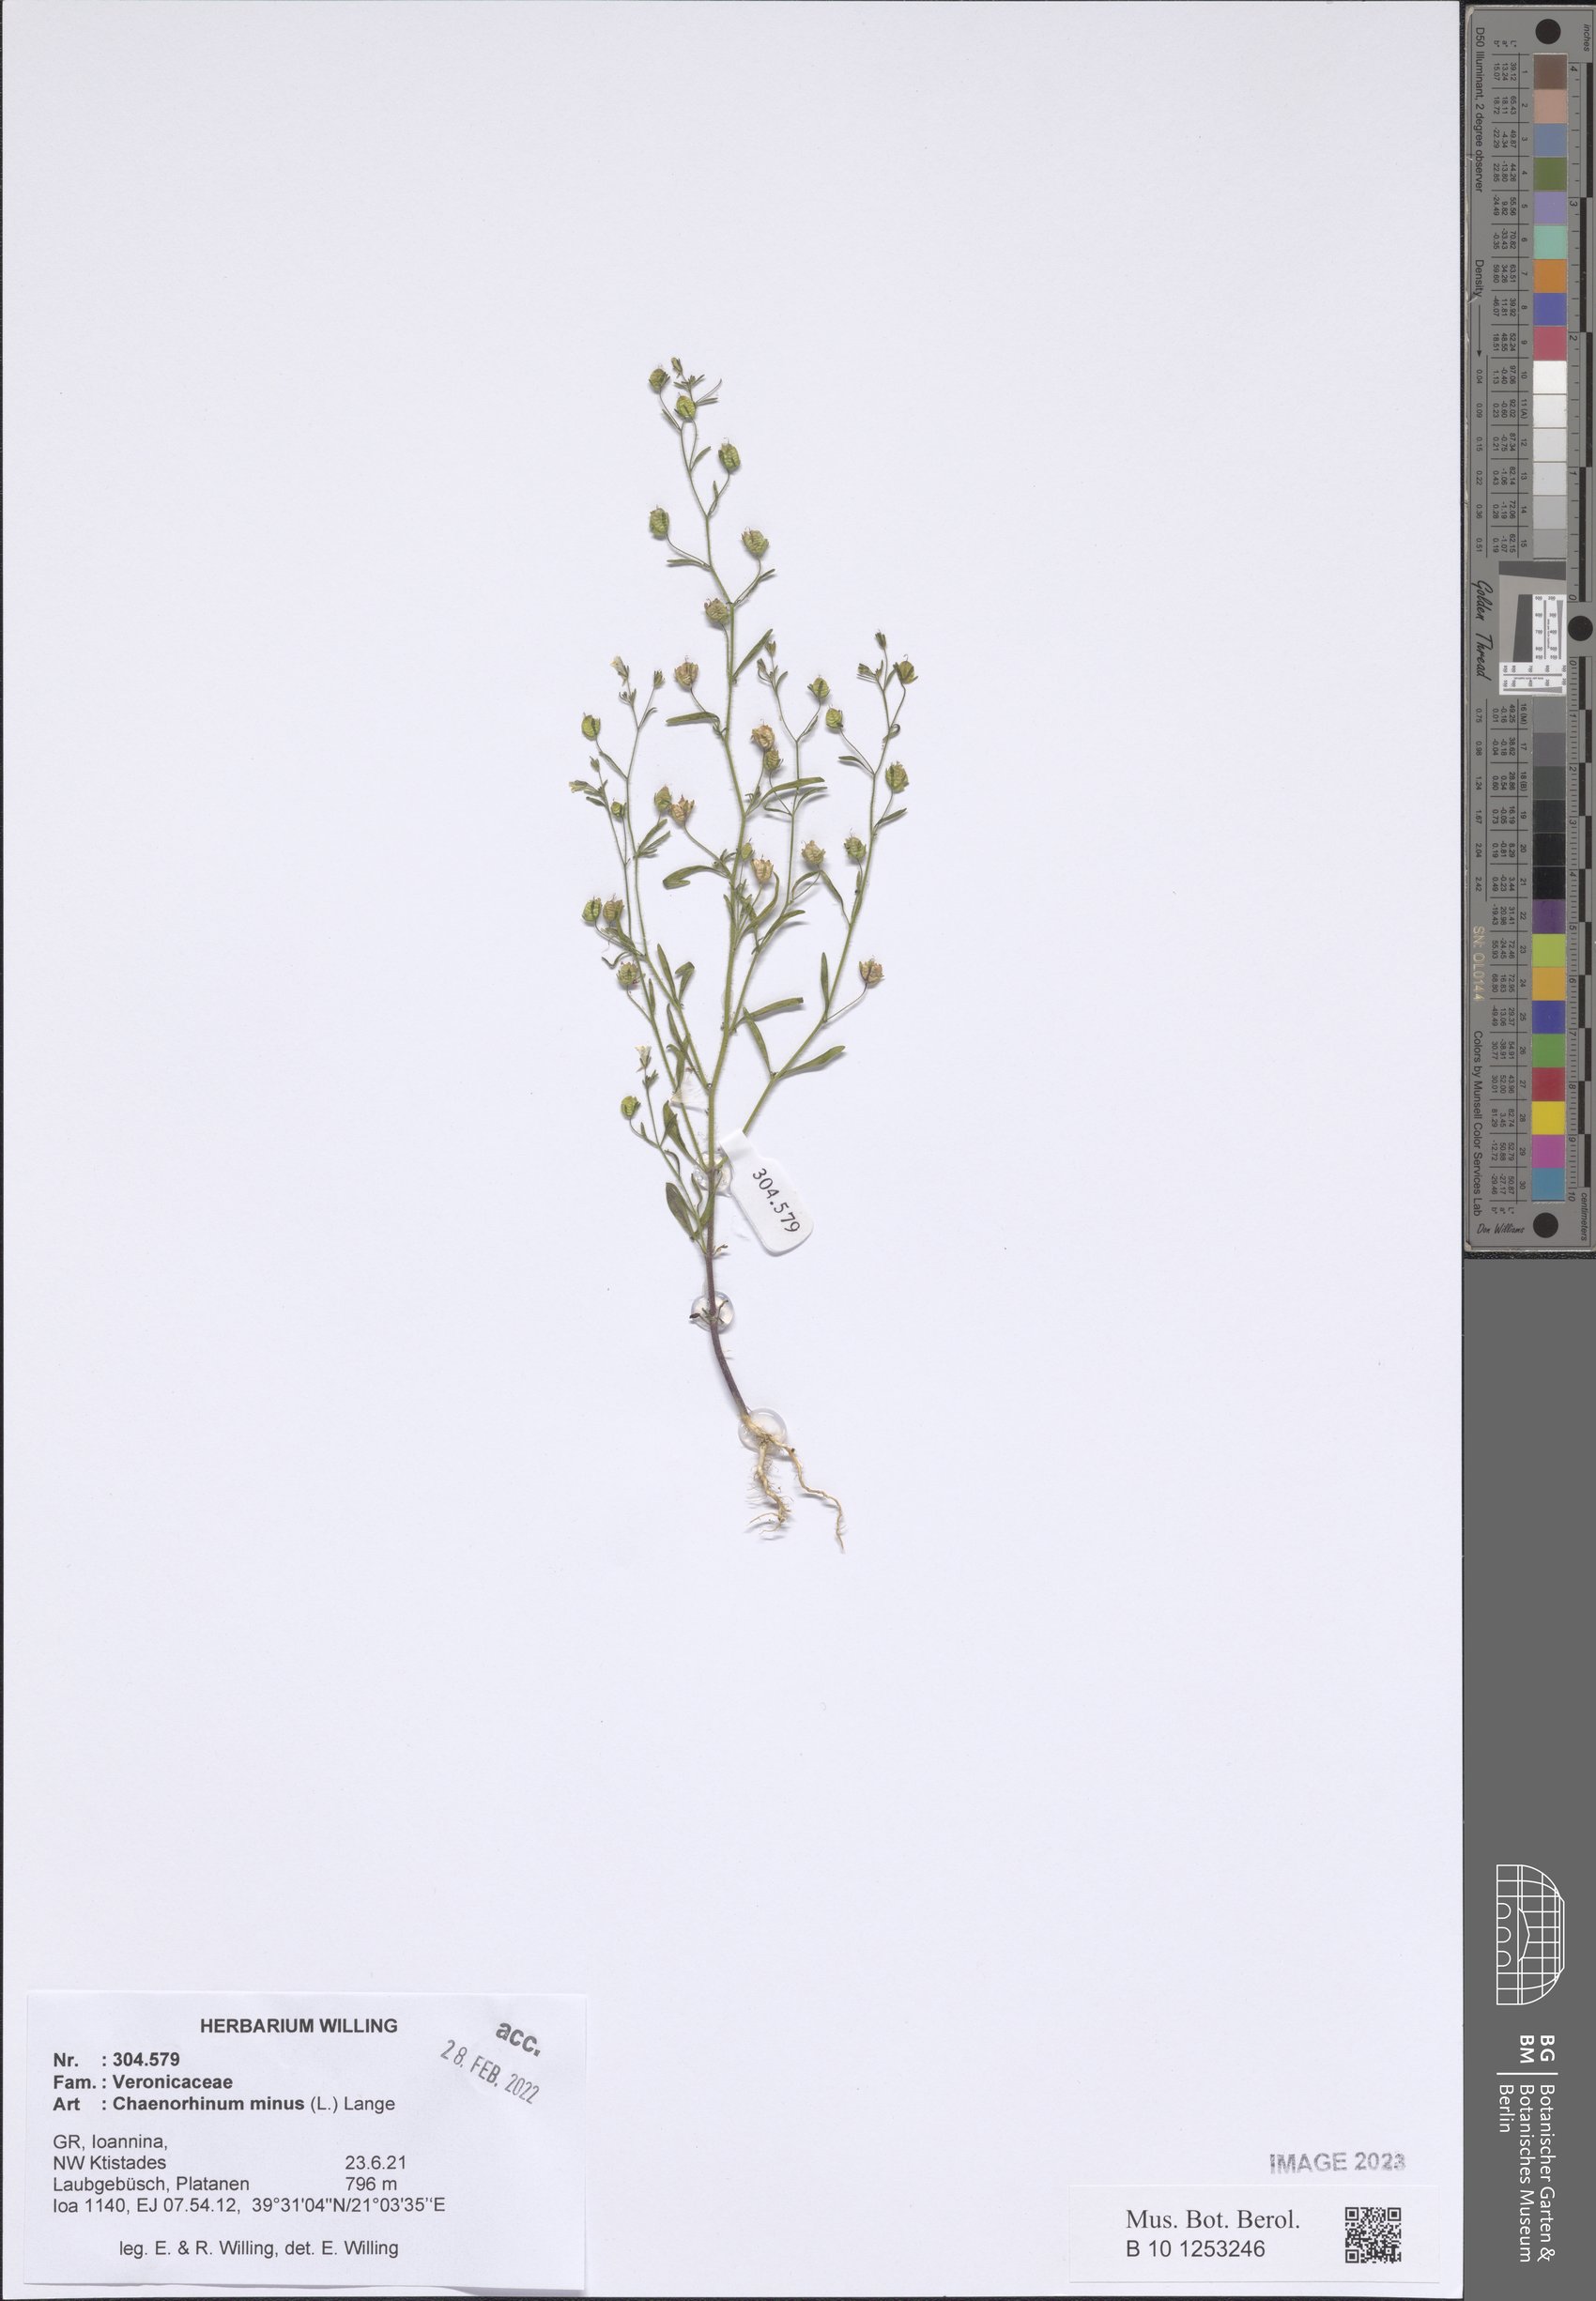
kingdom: Plantae
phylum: Tracheophyta
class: Magnoliopsida
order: Lamiales
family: Plantaginaceae
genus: Chaenorhinum
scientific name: Chaenorhinum minus
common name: Dwarf snapdragon
